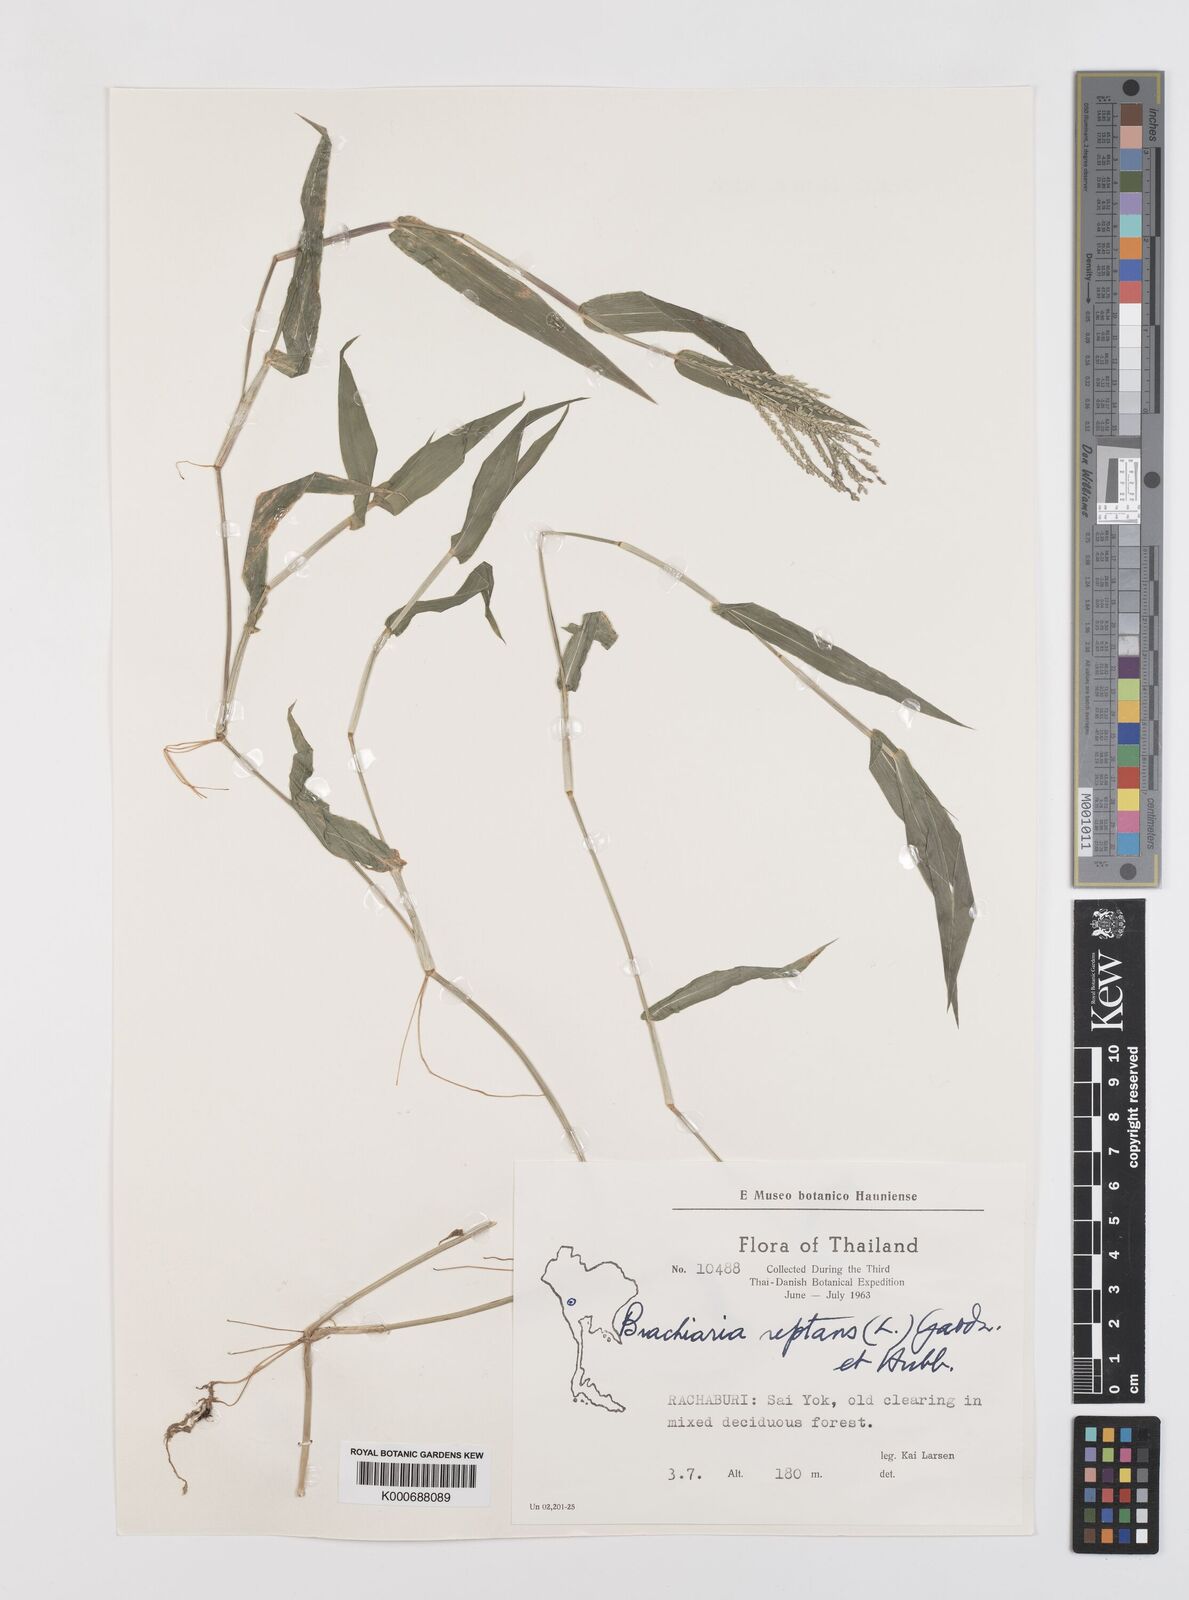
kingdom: Plantae
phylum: Tracheophyta
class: Liliopsida
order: Poales
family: Poaceae
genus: Urochloa
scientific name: Urochloa reptans
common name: Sprawling signalgrass
